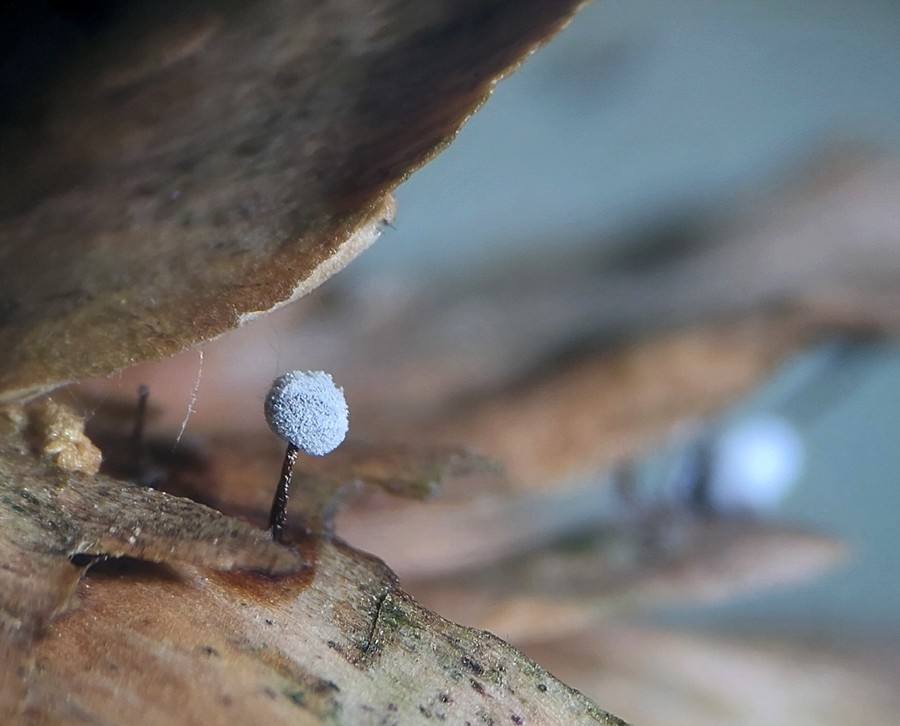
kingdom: Protozoa
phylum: Mycetozoa
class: Myxomycetes
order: Physarales
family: Didymiaceae
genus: Didymium
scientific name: Didymium nigripes
